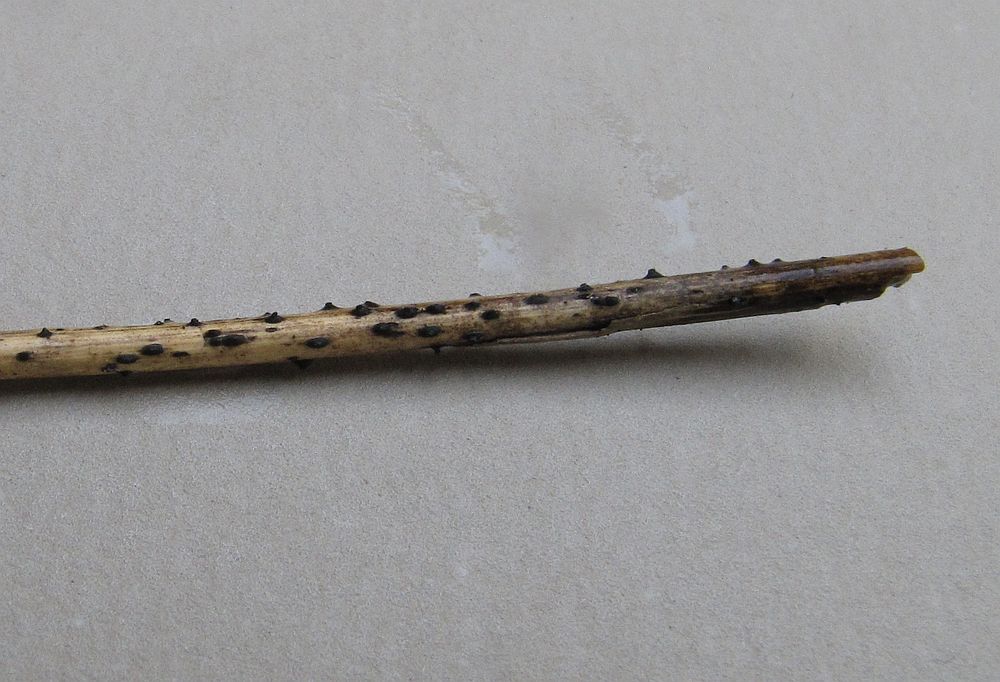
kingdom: Fungi
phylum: Ascomycota
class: Dothideomycetes
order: Pleosporales
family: Lophiostomataceae
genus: Lophiostoma
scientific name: Lophiostoma semiliberum
